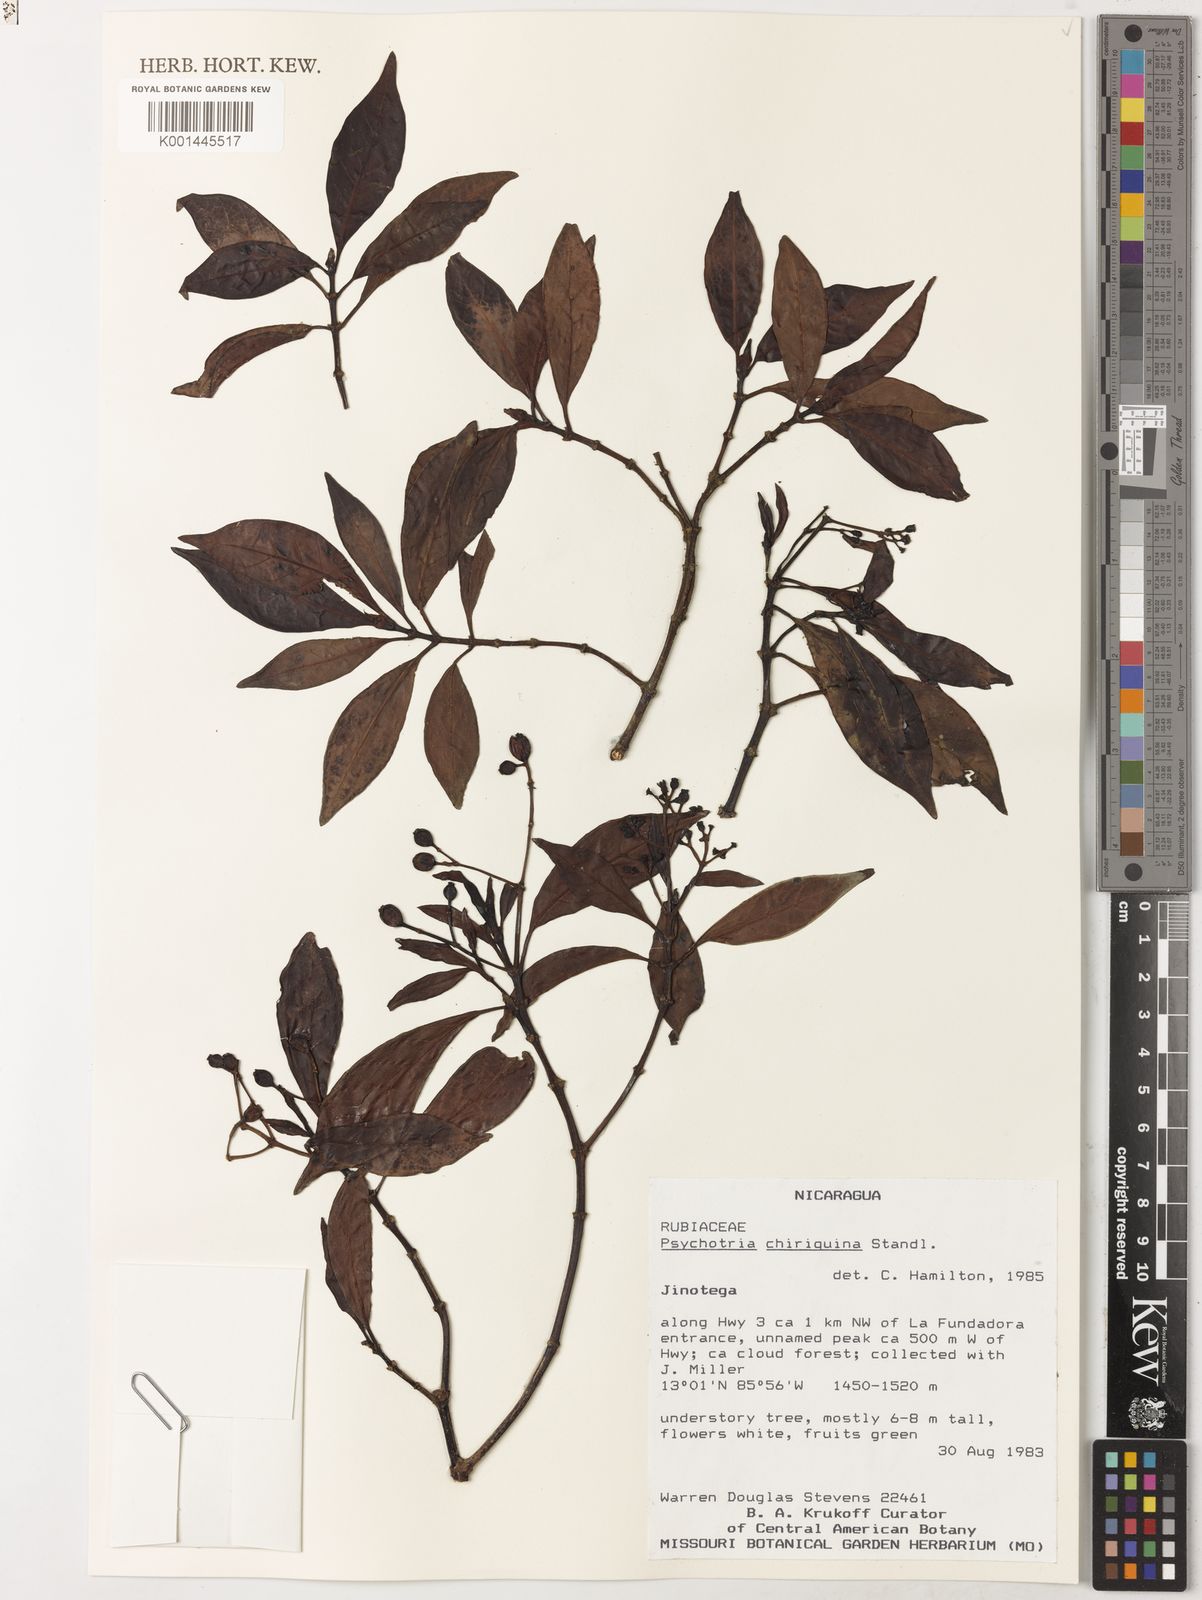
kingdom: Plantae
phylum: Tracheophyta
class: Magnoliopsida
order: Gentianales
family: Rubiaceae
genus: Psychotria
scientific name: Psychotria chiriquina
